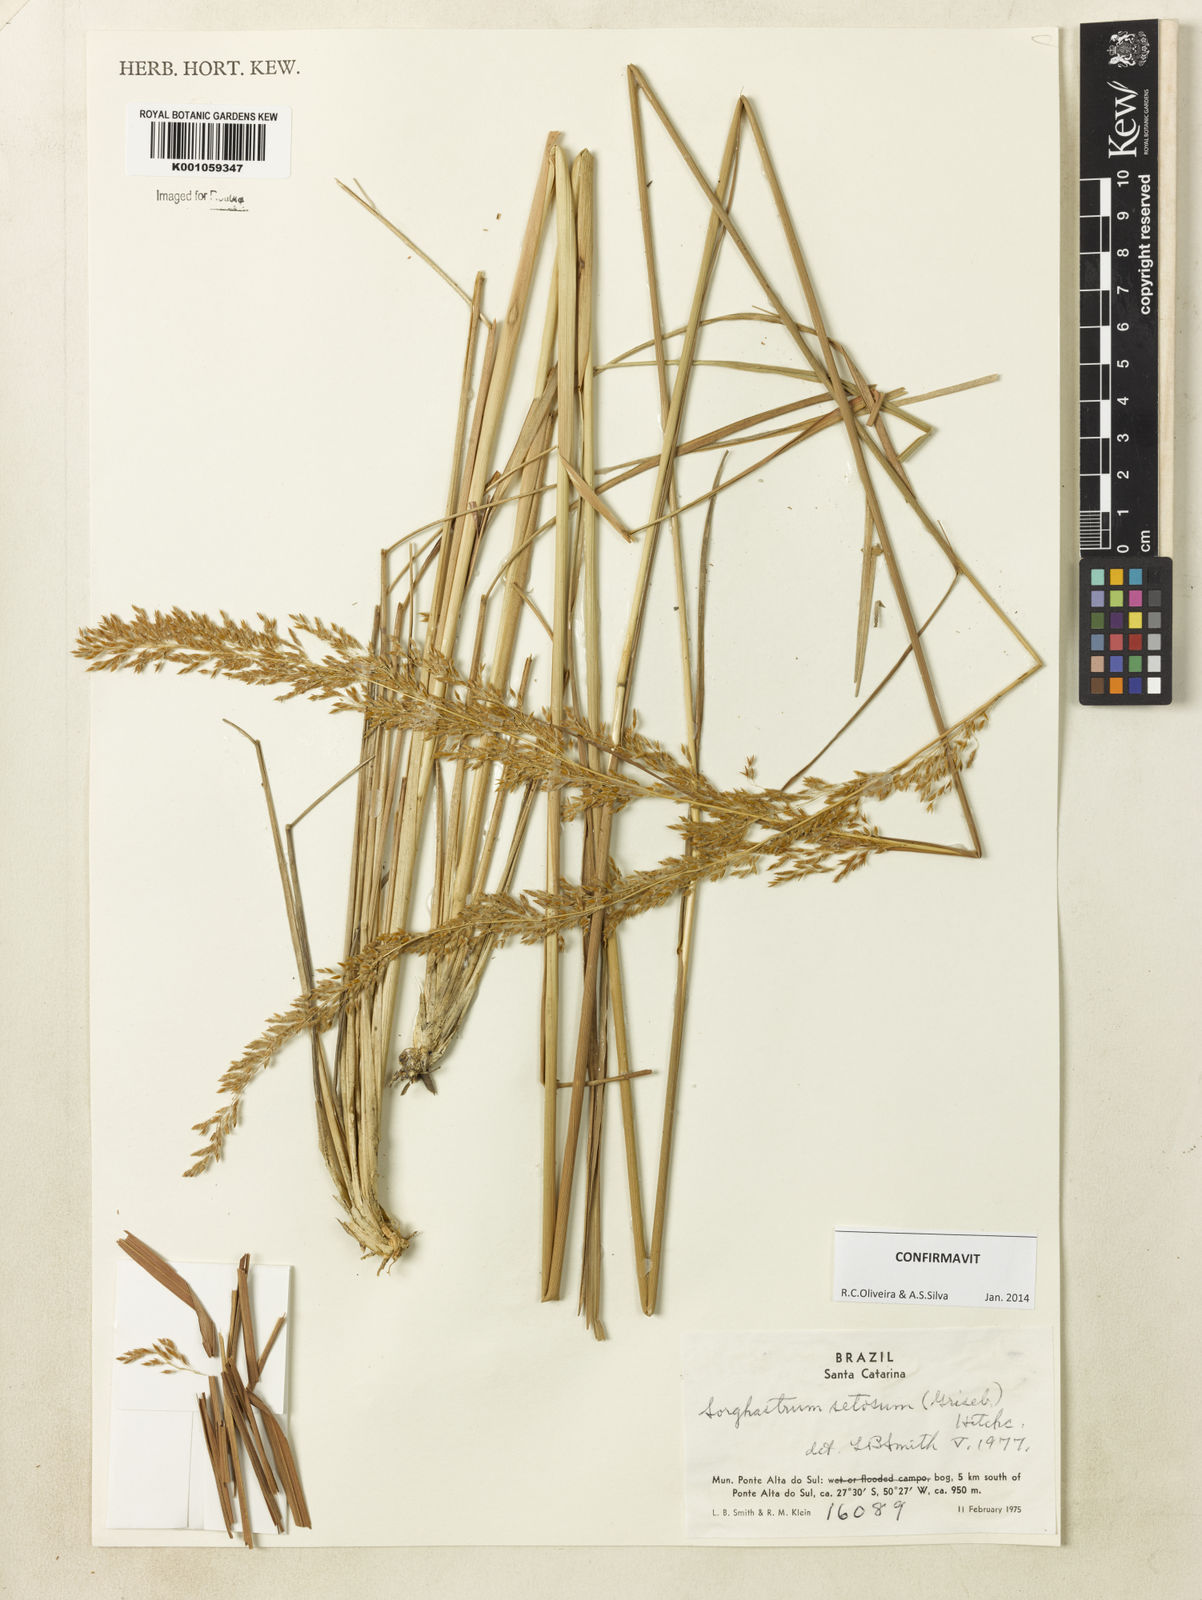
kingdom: Plantae
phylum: Tracheophyta
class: Liliopsida
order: Poales
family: Poaceae
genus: Sorghastrum
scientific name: Sorghastrum setosum
